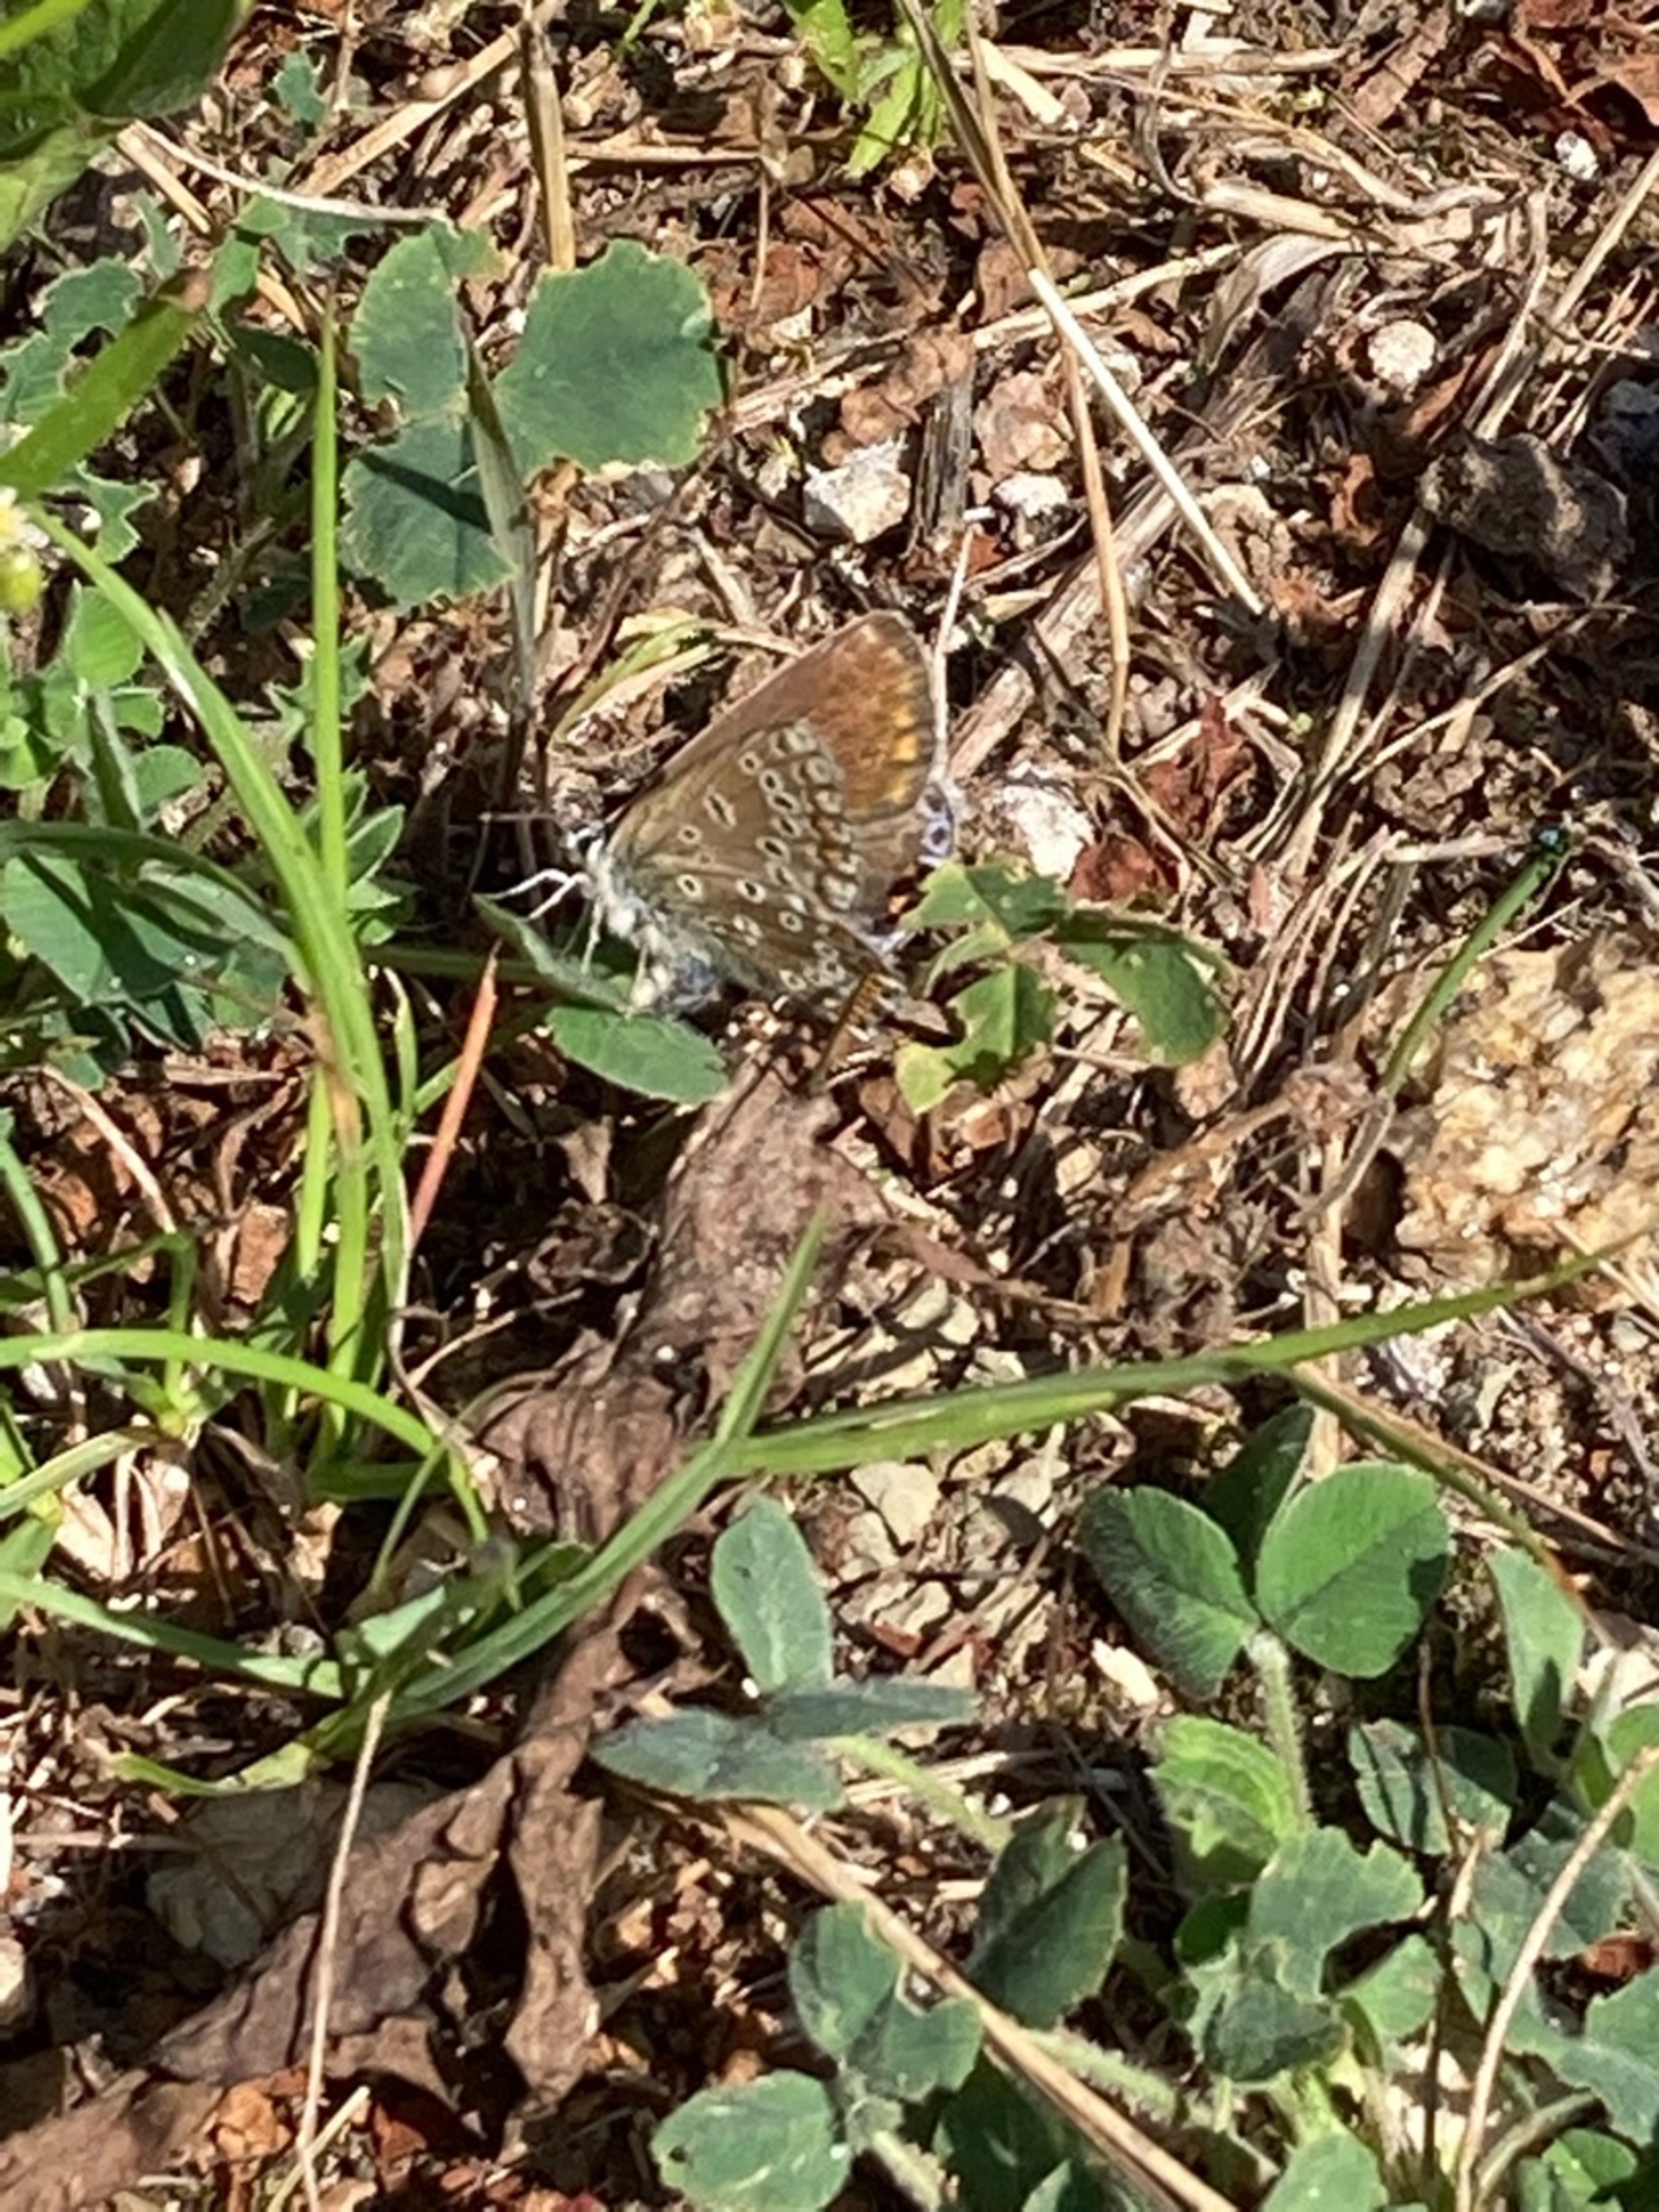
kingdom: Animalia
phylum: Arthropoda
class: Insecta
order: Lepidoptera
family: Lycaenidae
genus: Polyommatus
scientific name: Polyommatus icarus
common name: Almindelig blåfugl
